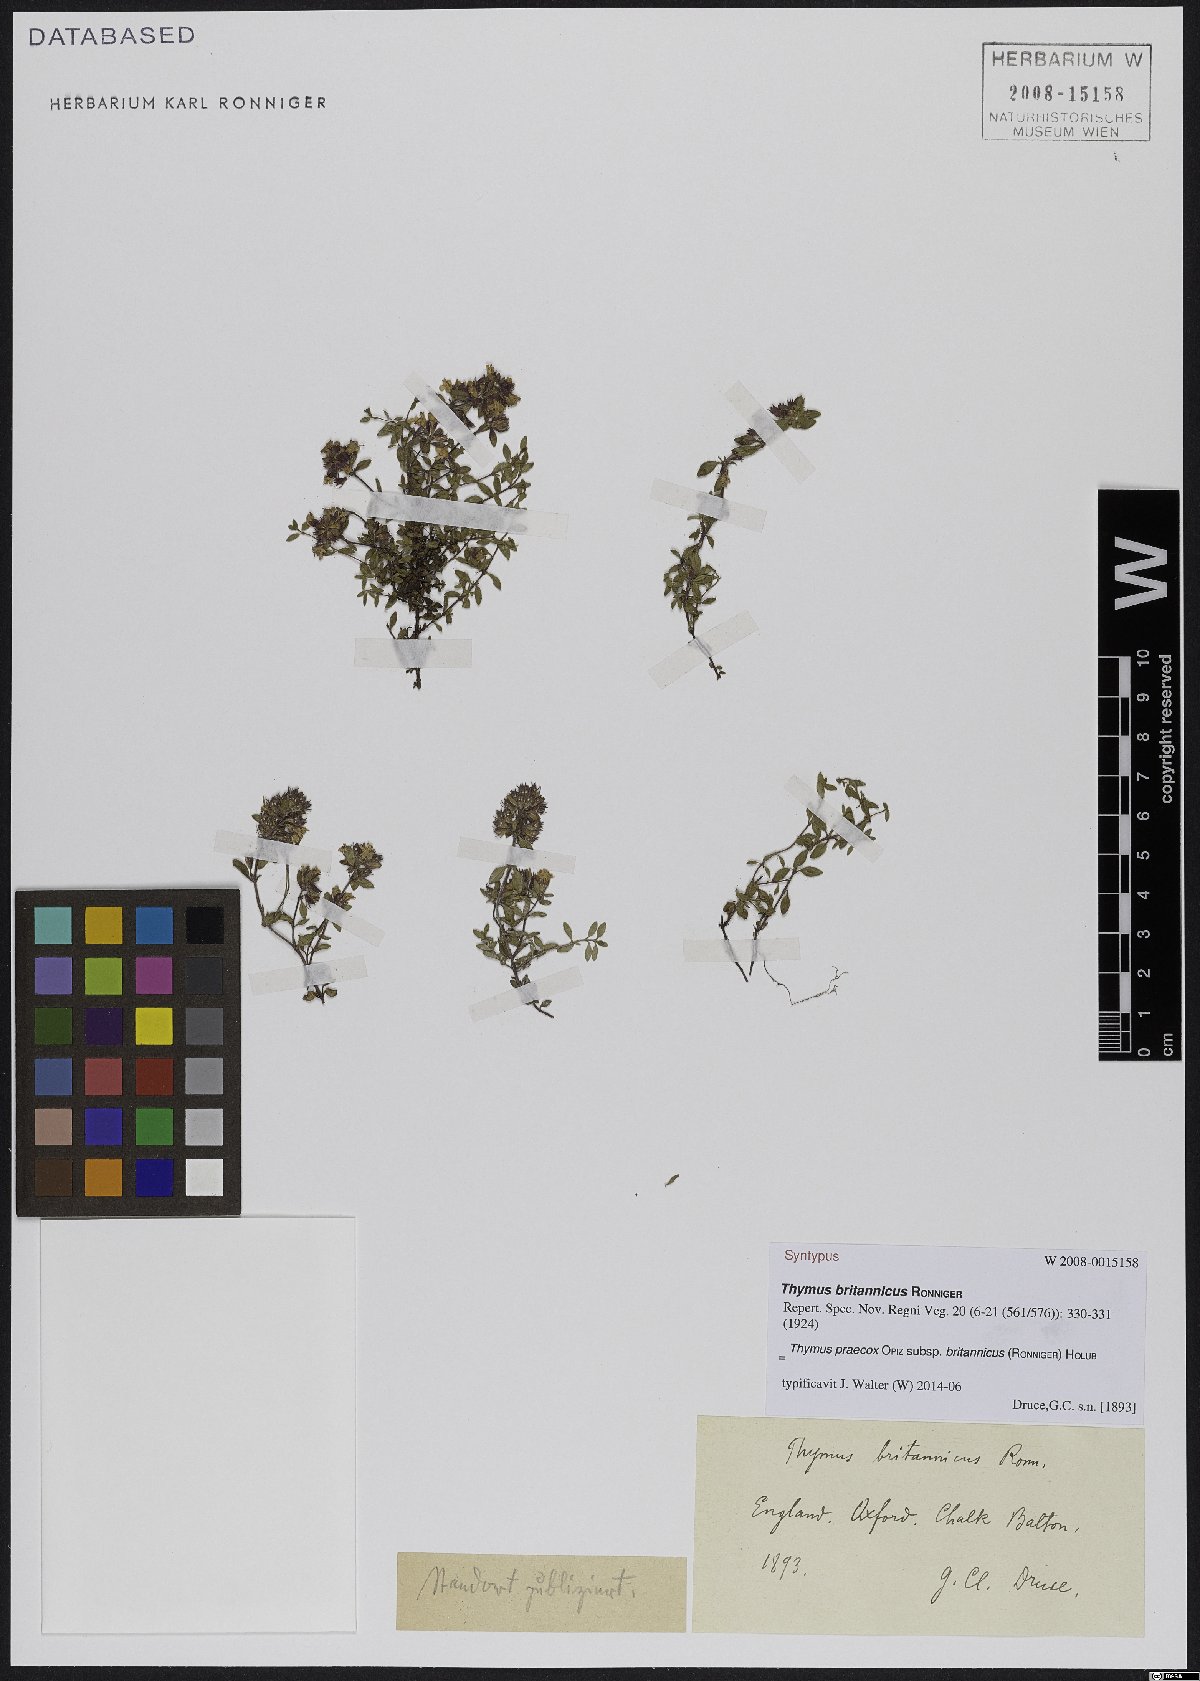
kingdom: Plantae
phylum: Tracheophyta
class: Magnoliopsida
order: Lamiales
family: Lamiaceae
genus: Thymus
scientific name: Thymus praecox
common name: Wild thyme
